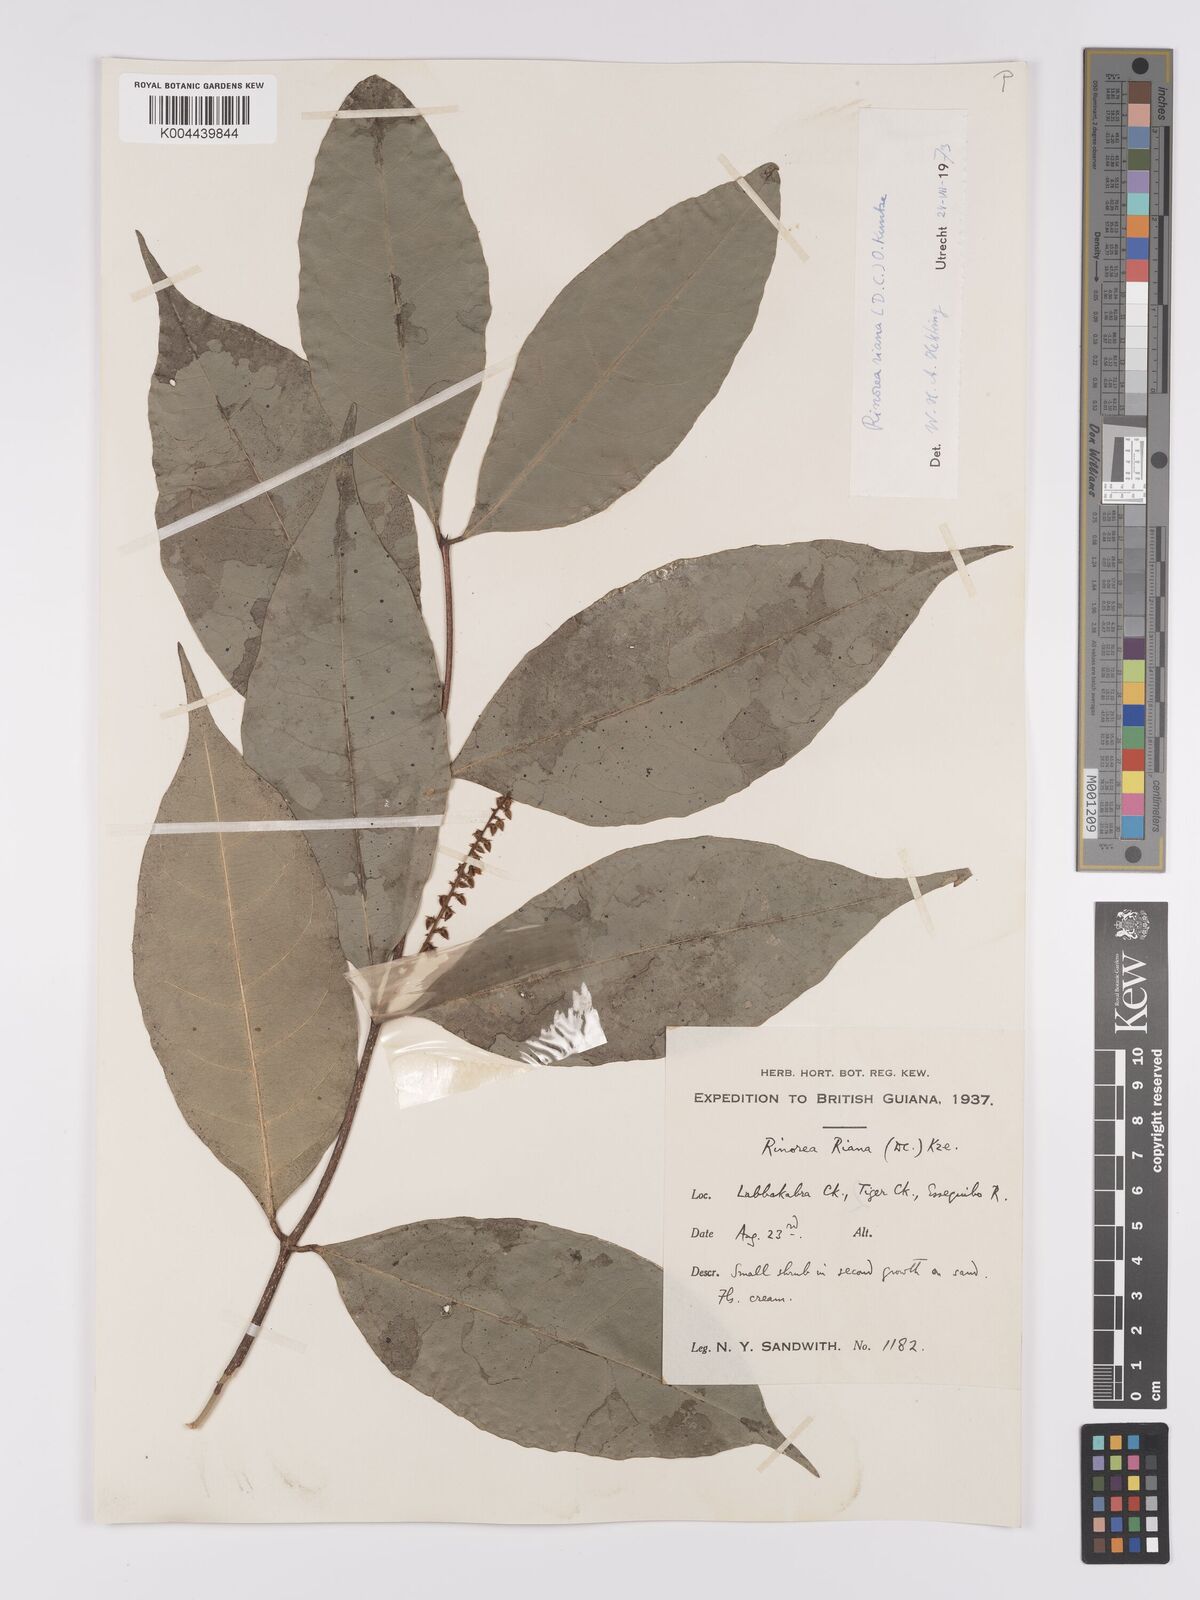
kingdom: Plantae
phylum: Tracheophyta
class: Magnoliopsida
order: Malpighiales
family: Violaceae
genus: Rinorea
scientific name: Rinorea riana
